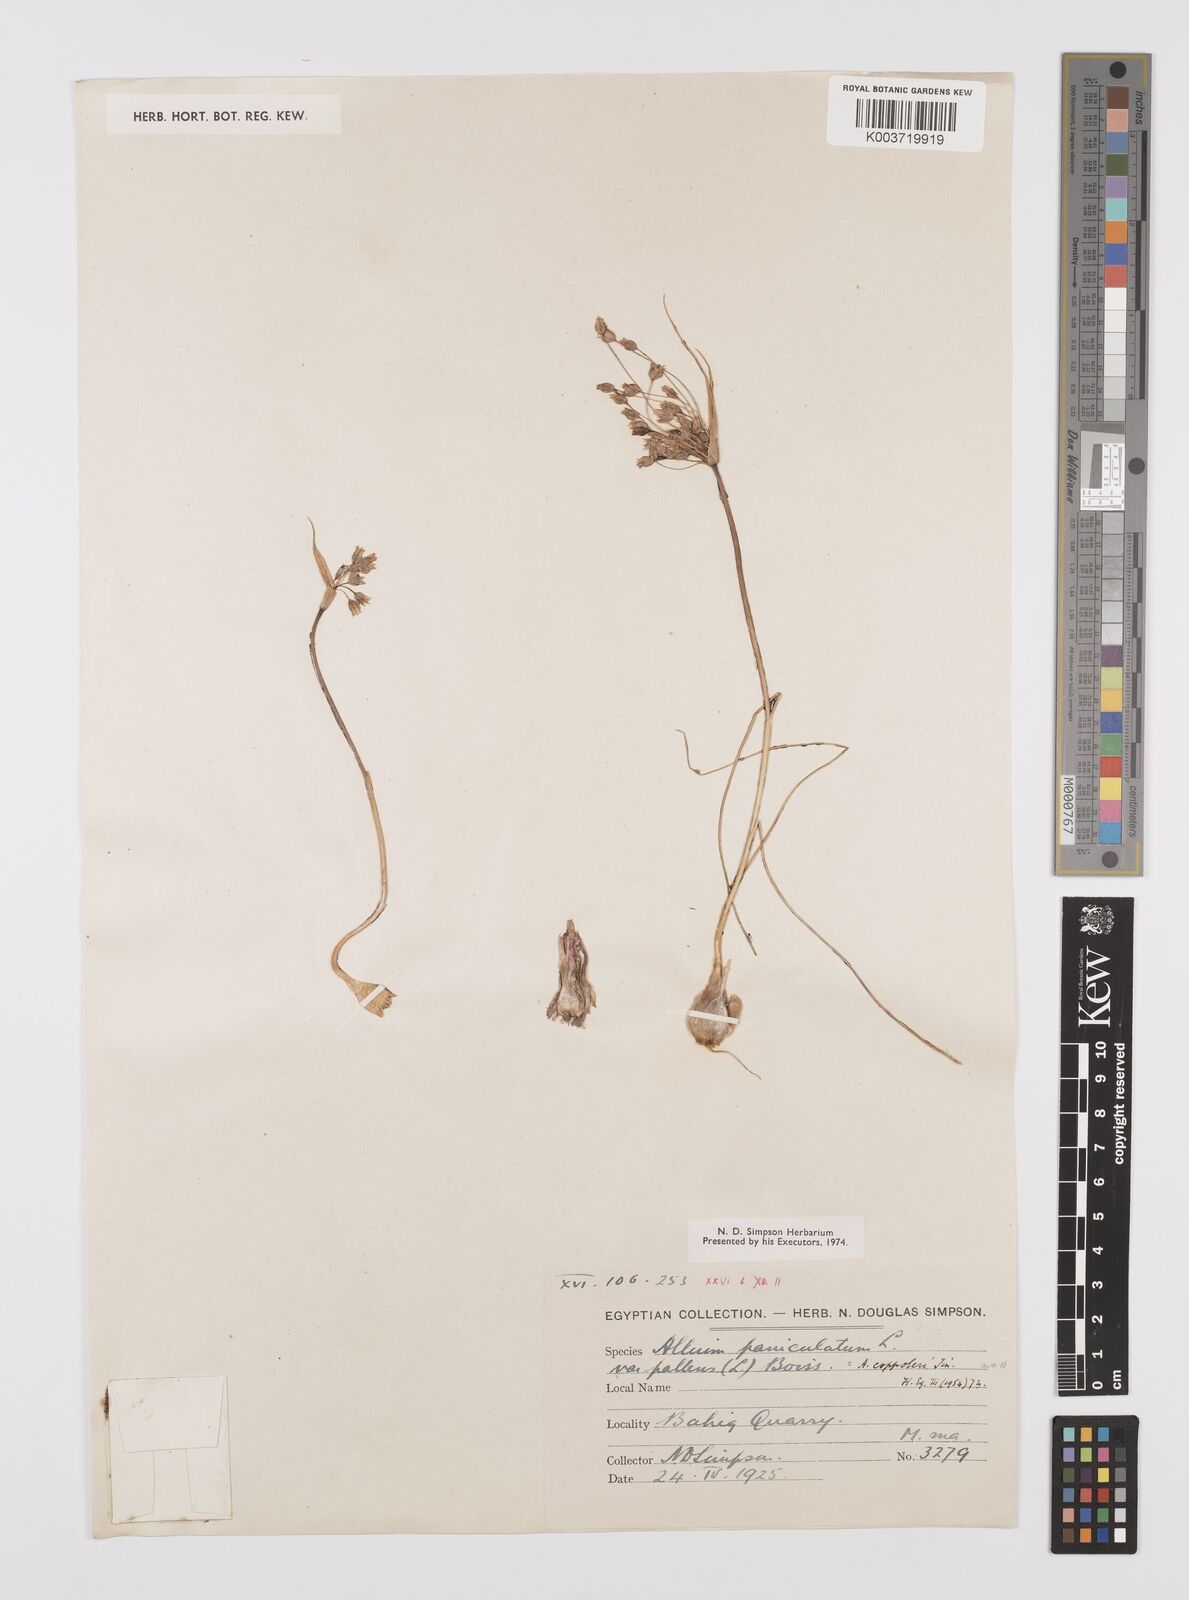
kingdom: Plantae
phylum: Tracheophyta
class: Liliopsida
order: Asparagales
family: Amaryllidaceae
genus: Allium
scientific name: Allium paniculatum
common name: Pale garlic
